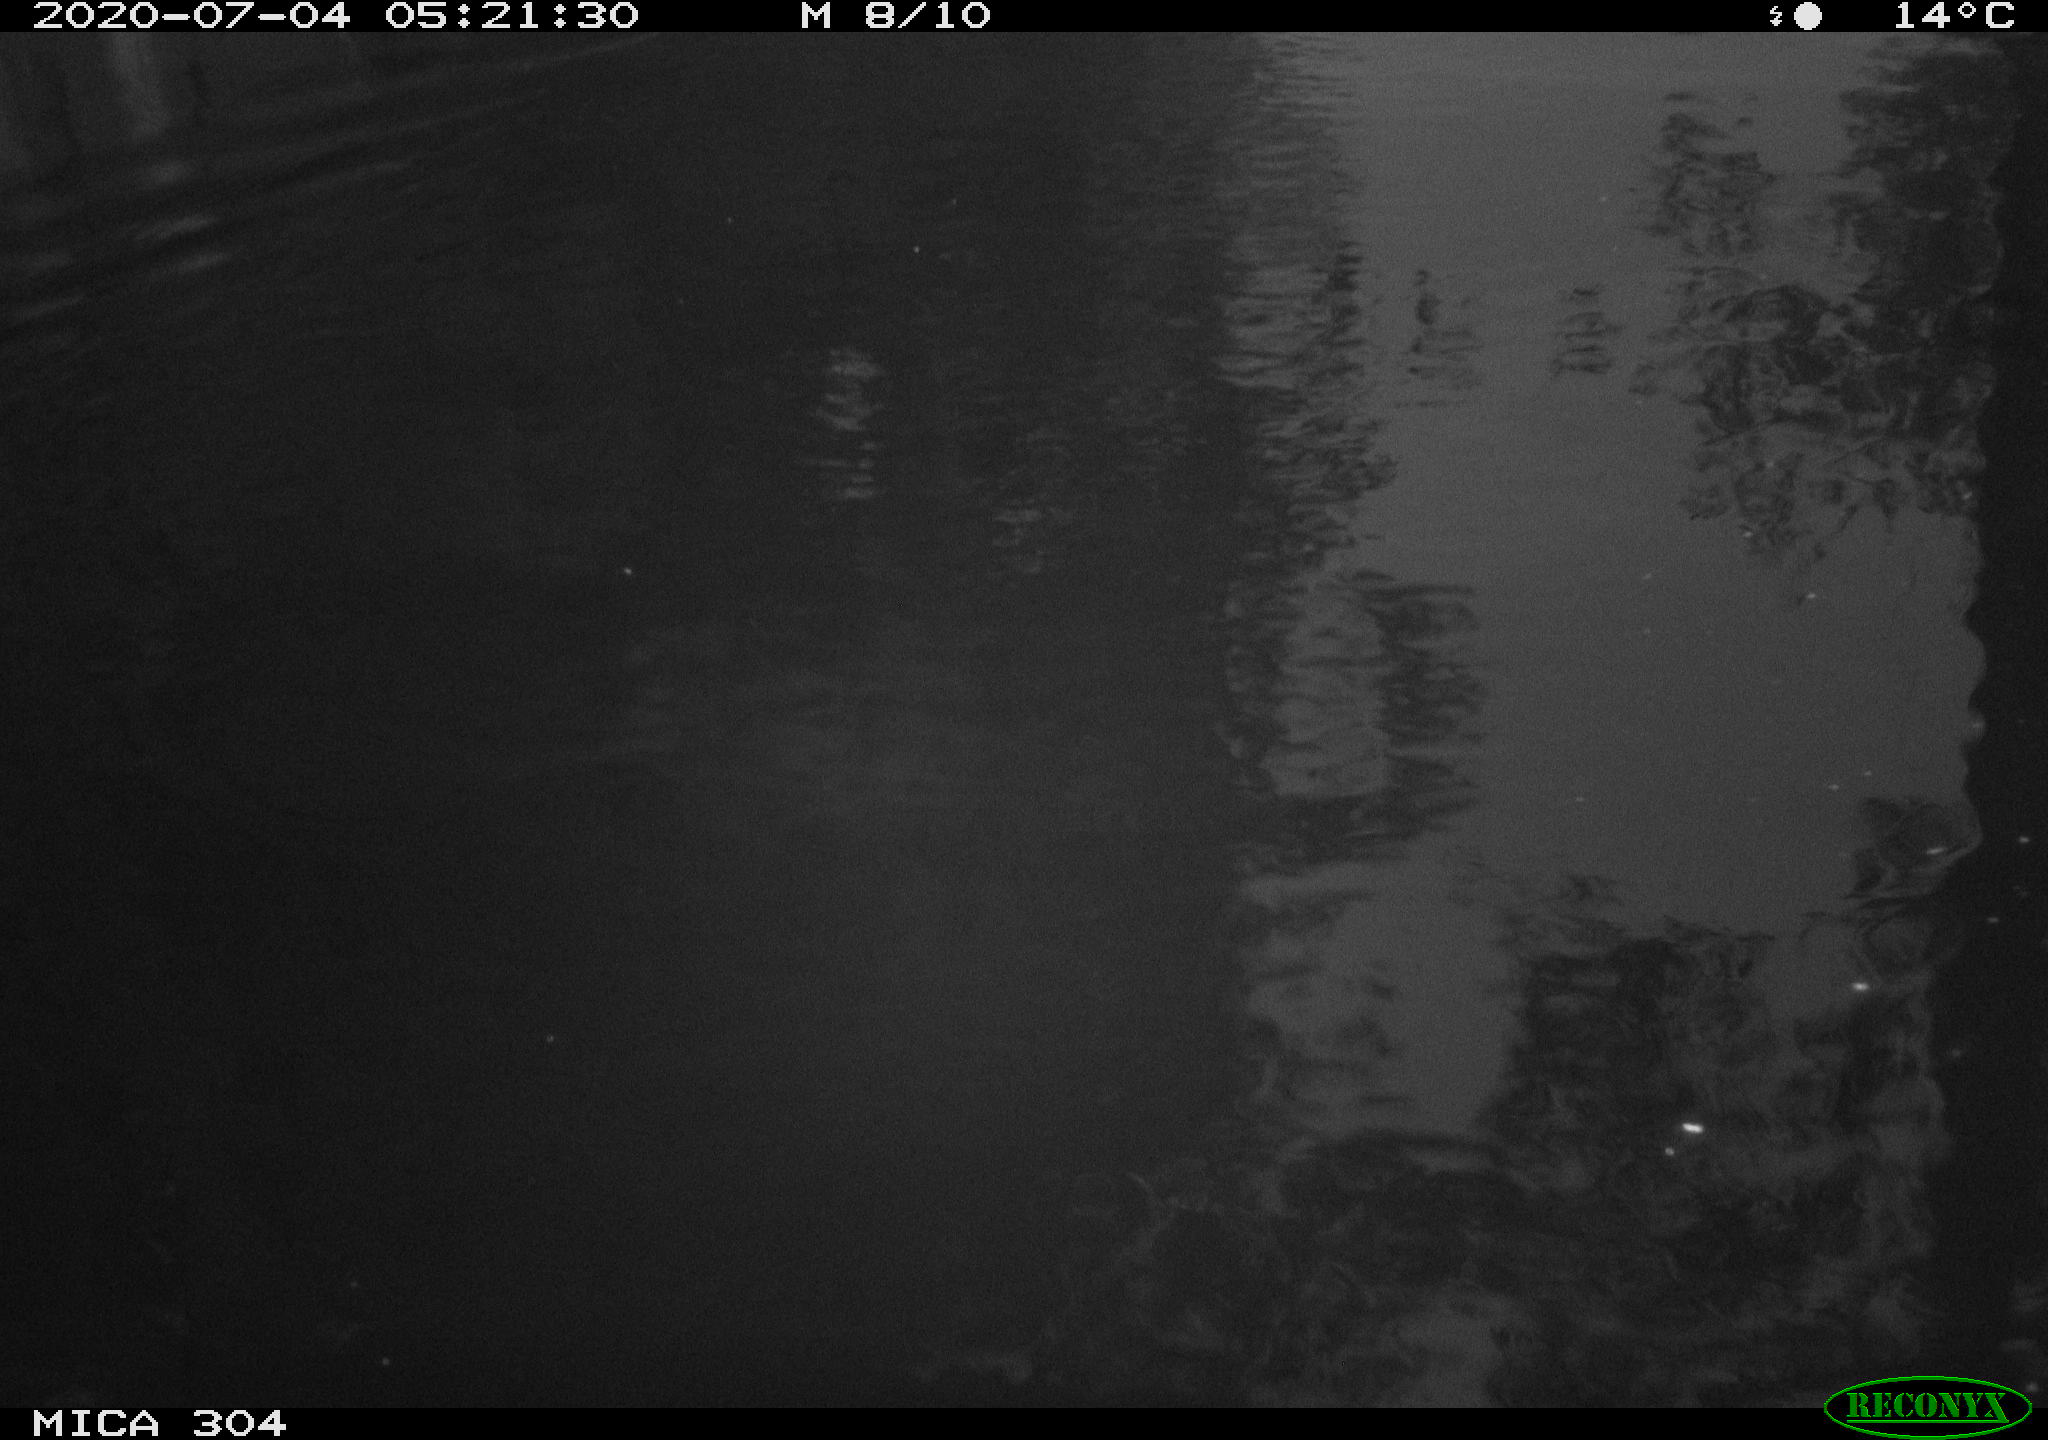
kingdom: Animalia
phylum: Chordata
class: Aves
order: Anseriformes
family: Anatidae
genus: Anas
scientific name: Anas platyrhynchos
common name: Mallard
